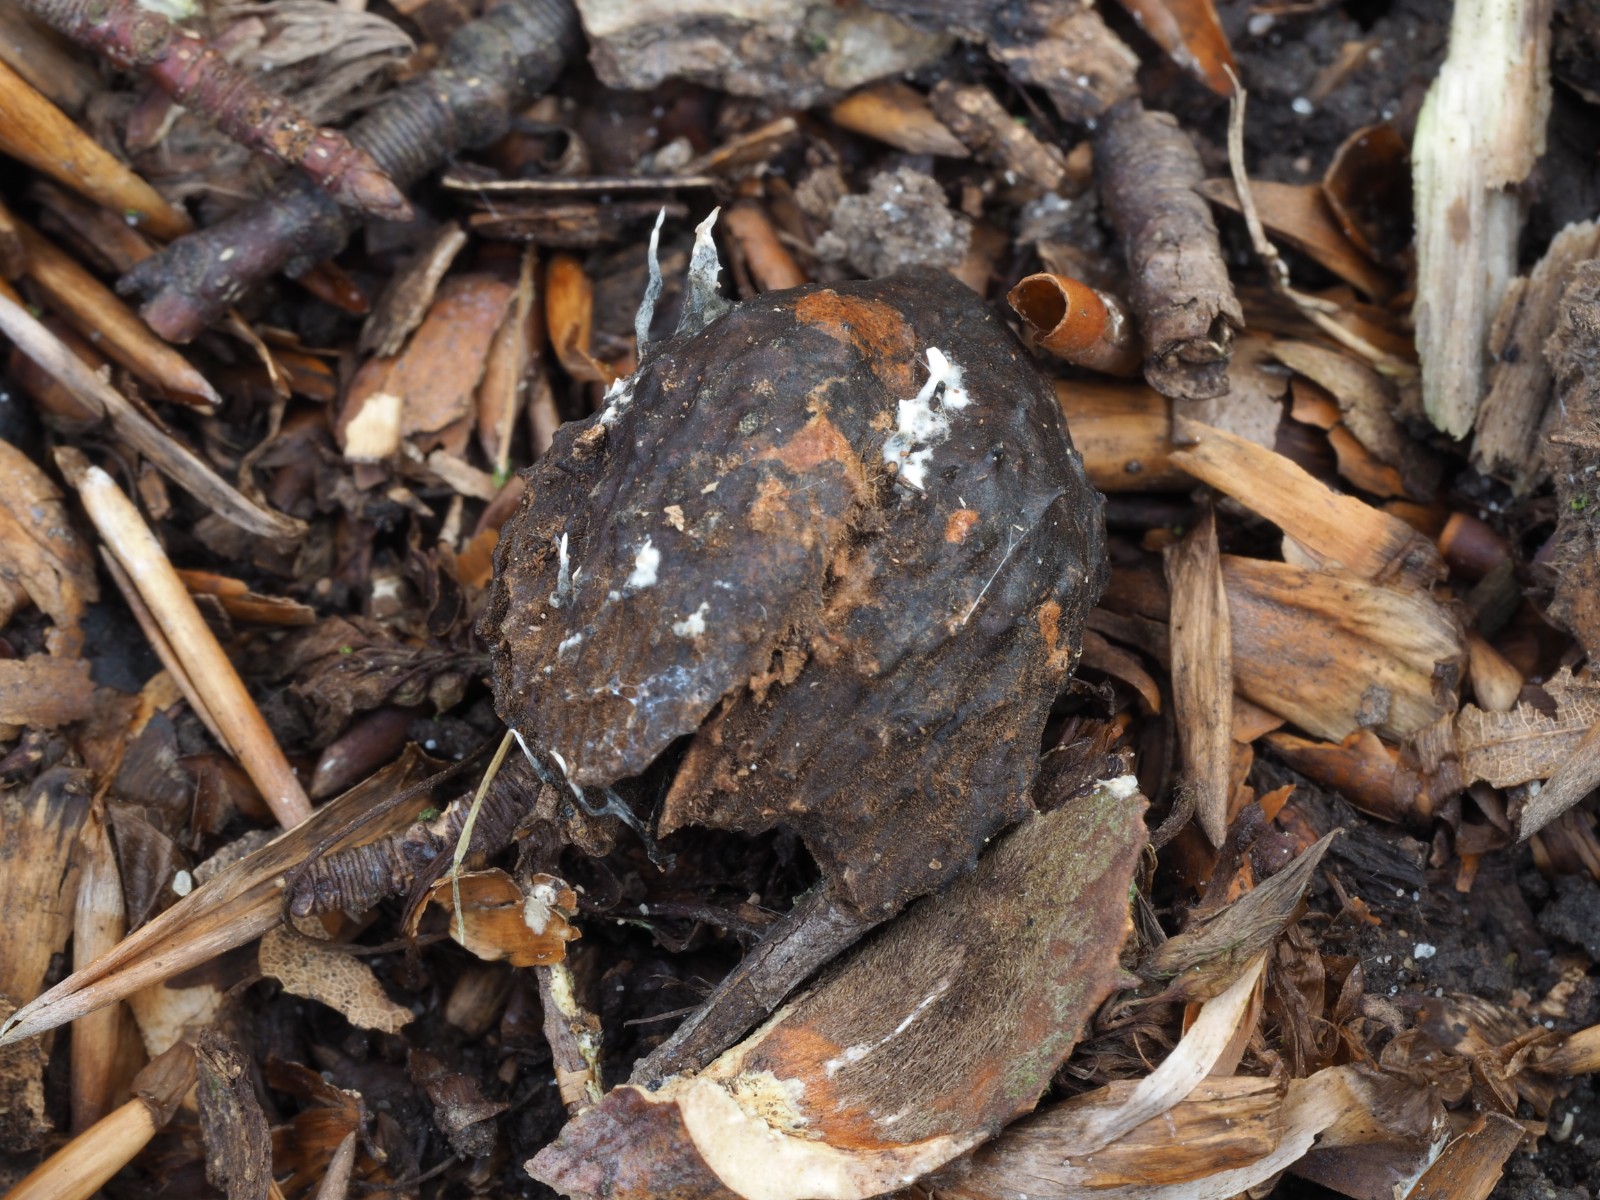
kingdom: Fungi
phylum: Ascomycota
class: Sordariomycetes
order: Xylariales
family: Xylariaceae
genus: Xylaria
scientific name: Xylaria carpophila
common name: bogskål-stødsvamp
